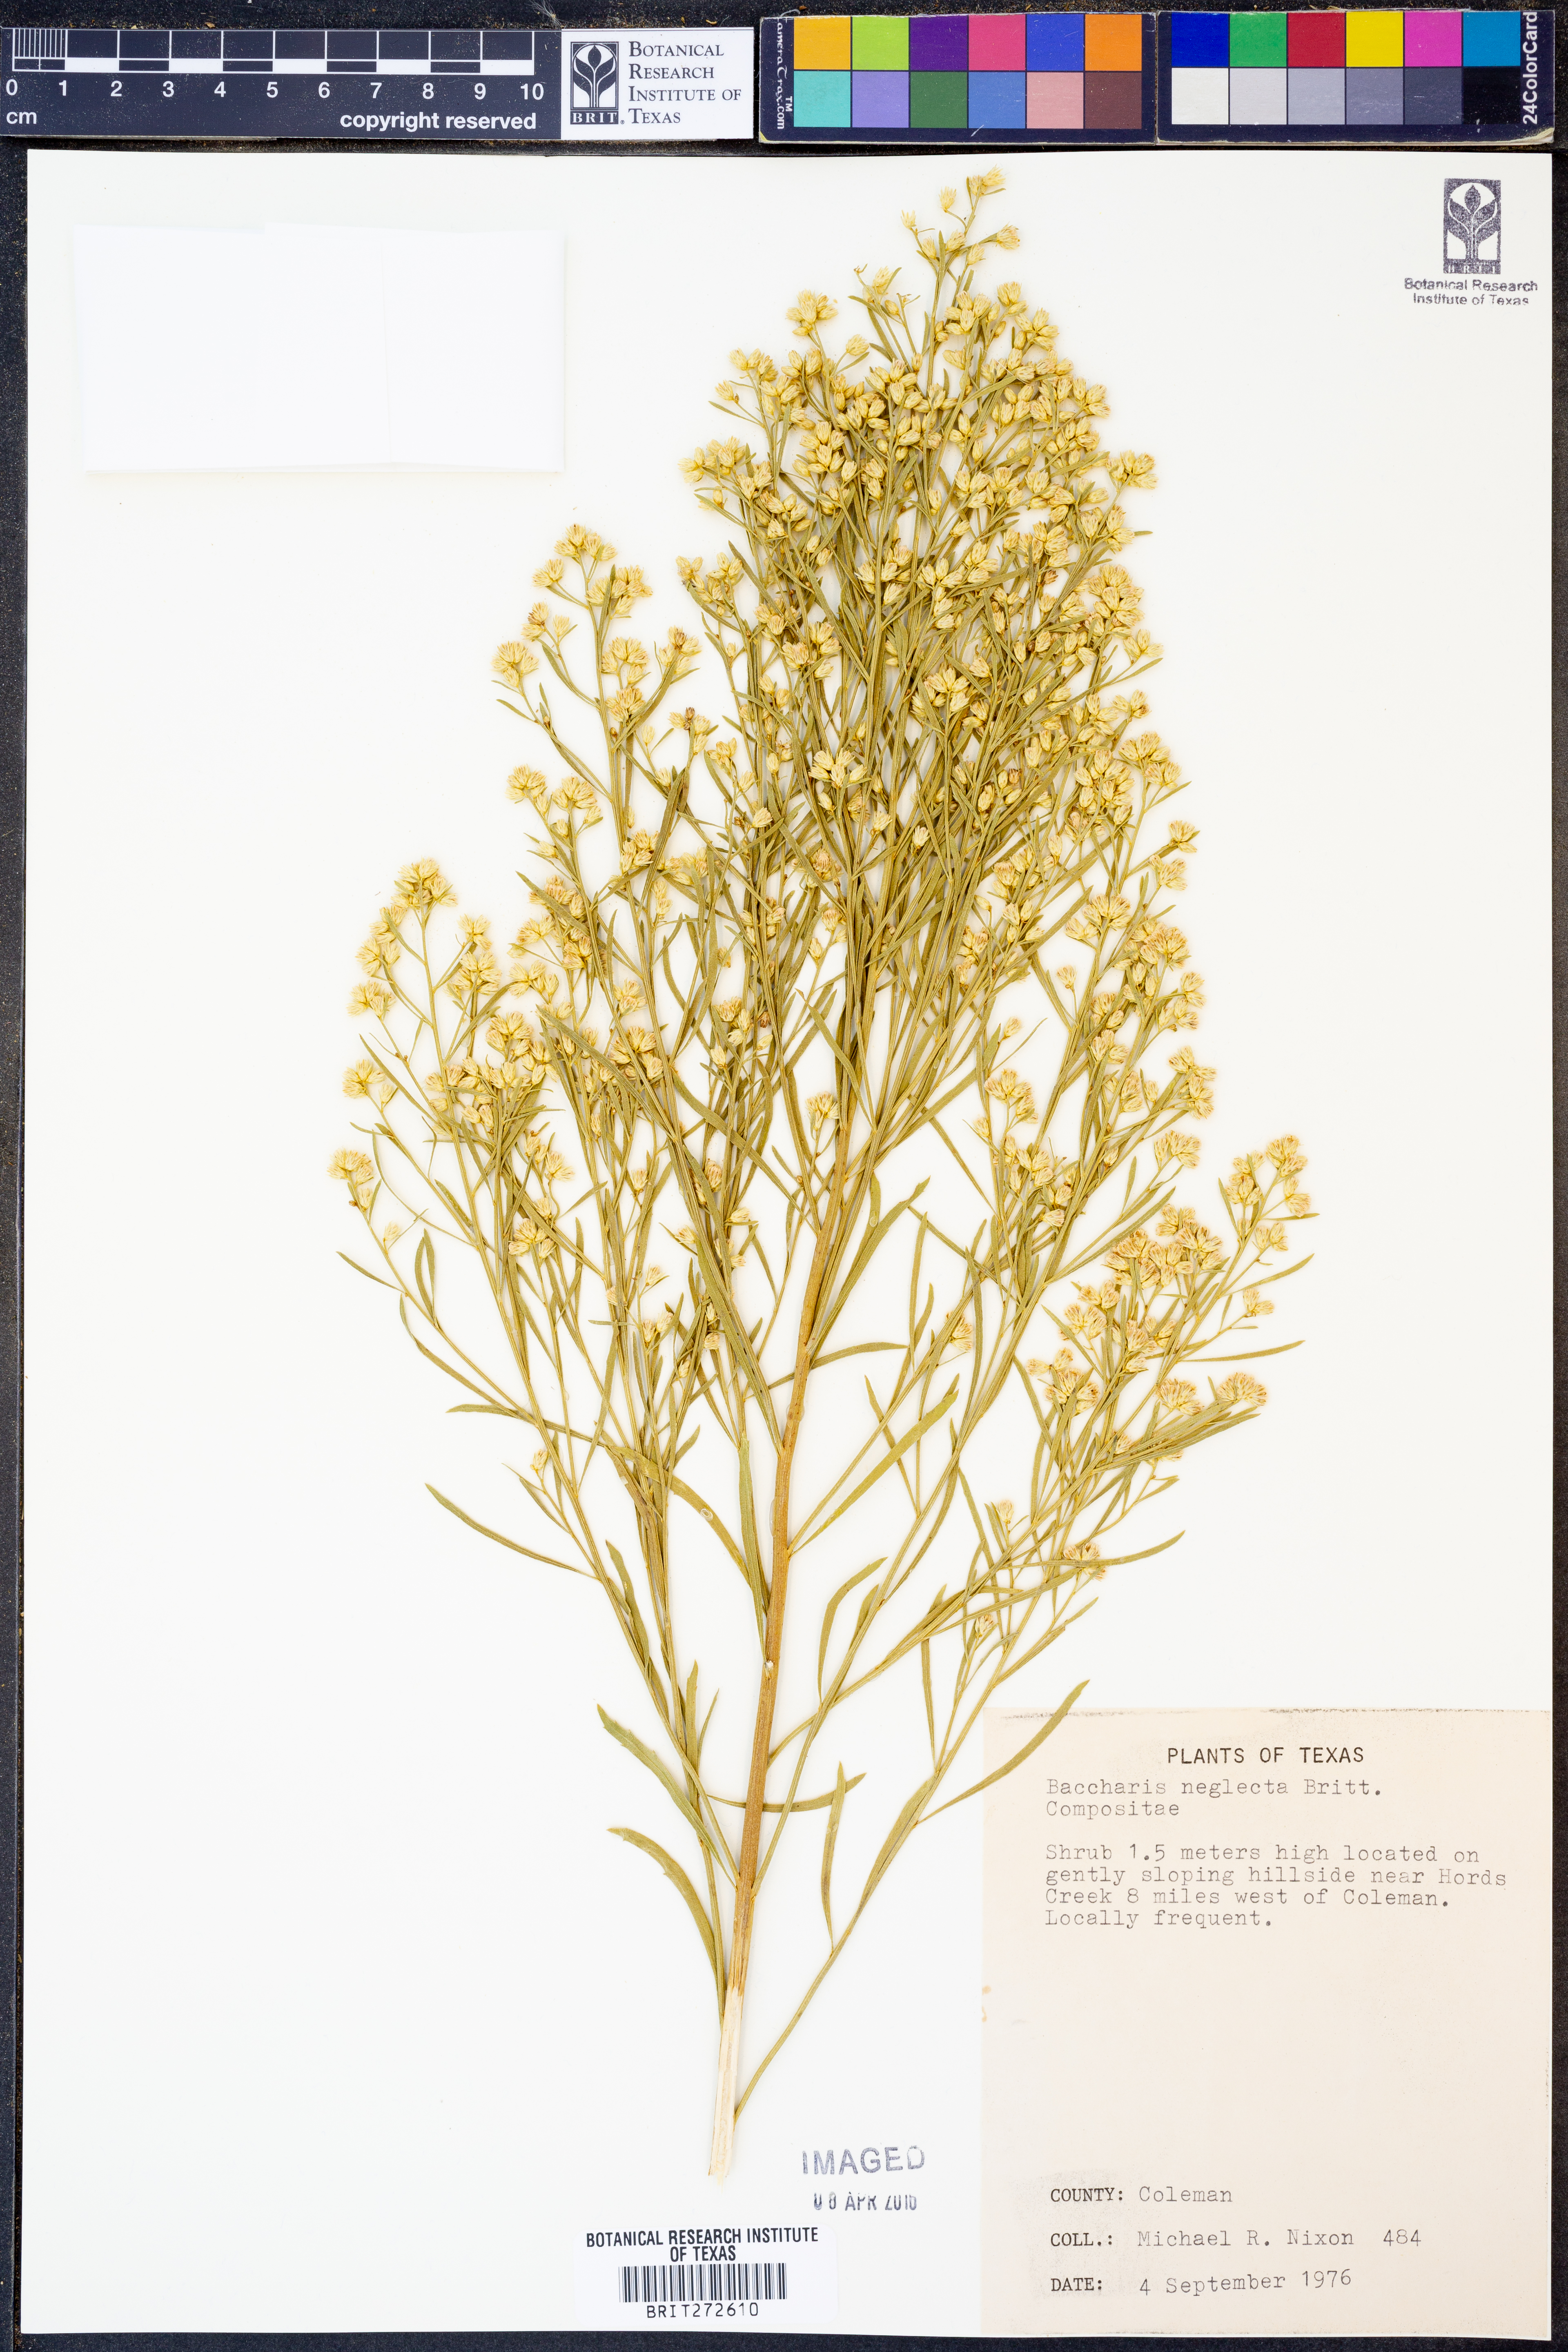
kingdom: Plantae
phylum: Tracheophyta
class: Magnoliopsida
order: Asterales
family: Asteraceae
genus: Baccharis
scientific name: Baccharis neglecta
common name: Roosevelt-weed
